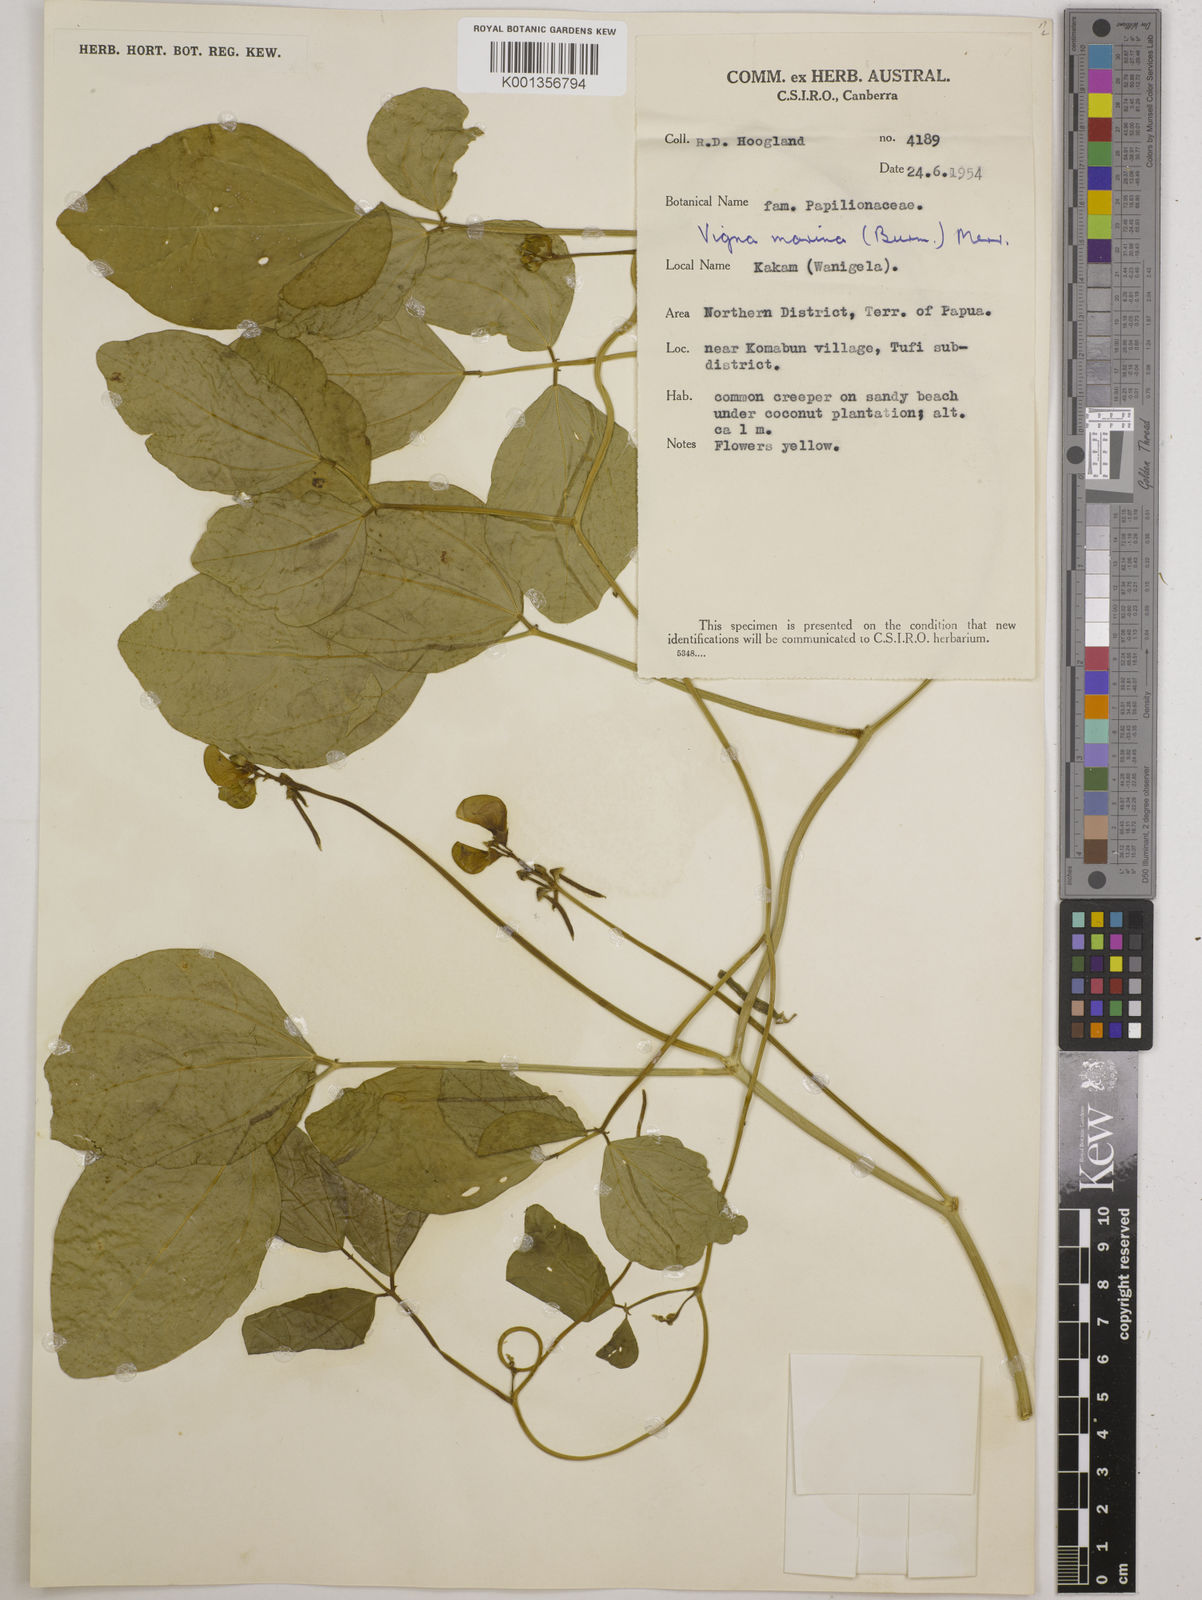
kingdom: Plantae
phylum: Tracheophyta
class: Magnoliopsida
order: Fabales
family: Fabaceae
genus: Vigna
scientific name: Vigna marina
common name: Dune-bean
